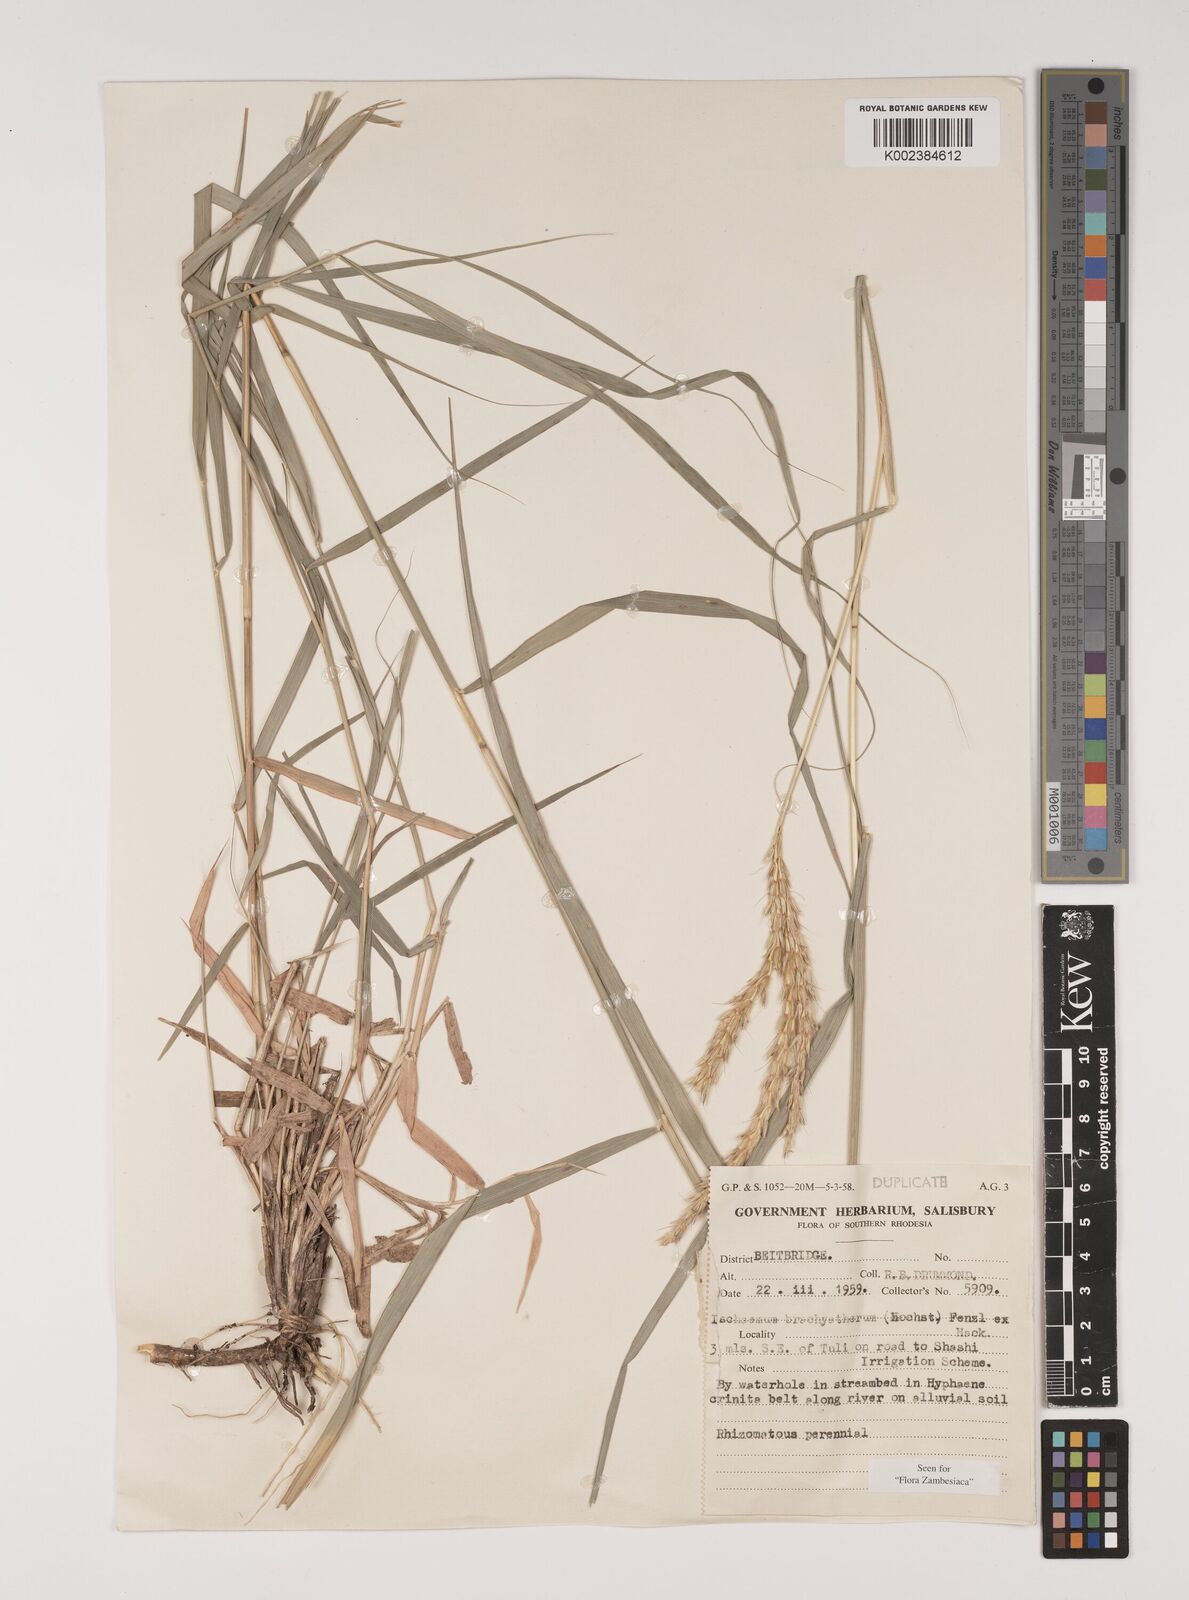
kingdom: Plantae
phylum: Tracheophyta
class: Liliopsida
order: Poales
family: Poaceae
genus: Ischaemum
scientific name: Ischaemum afrum
